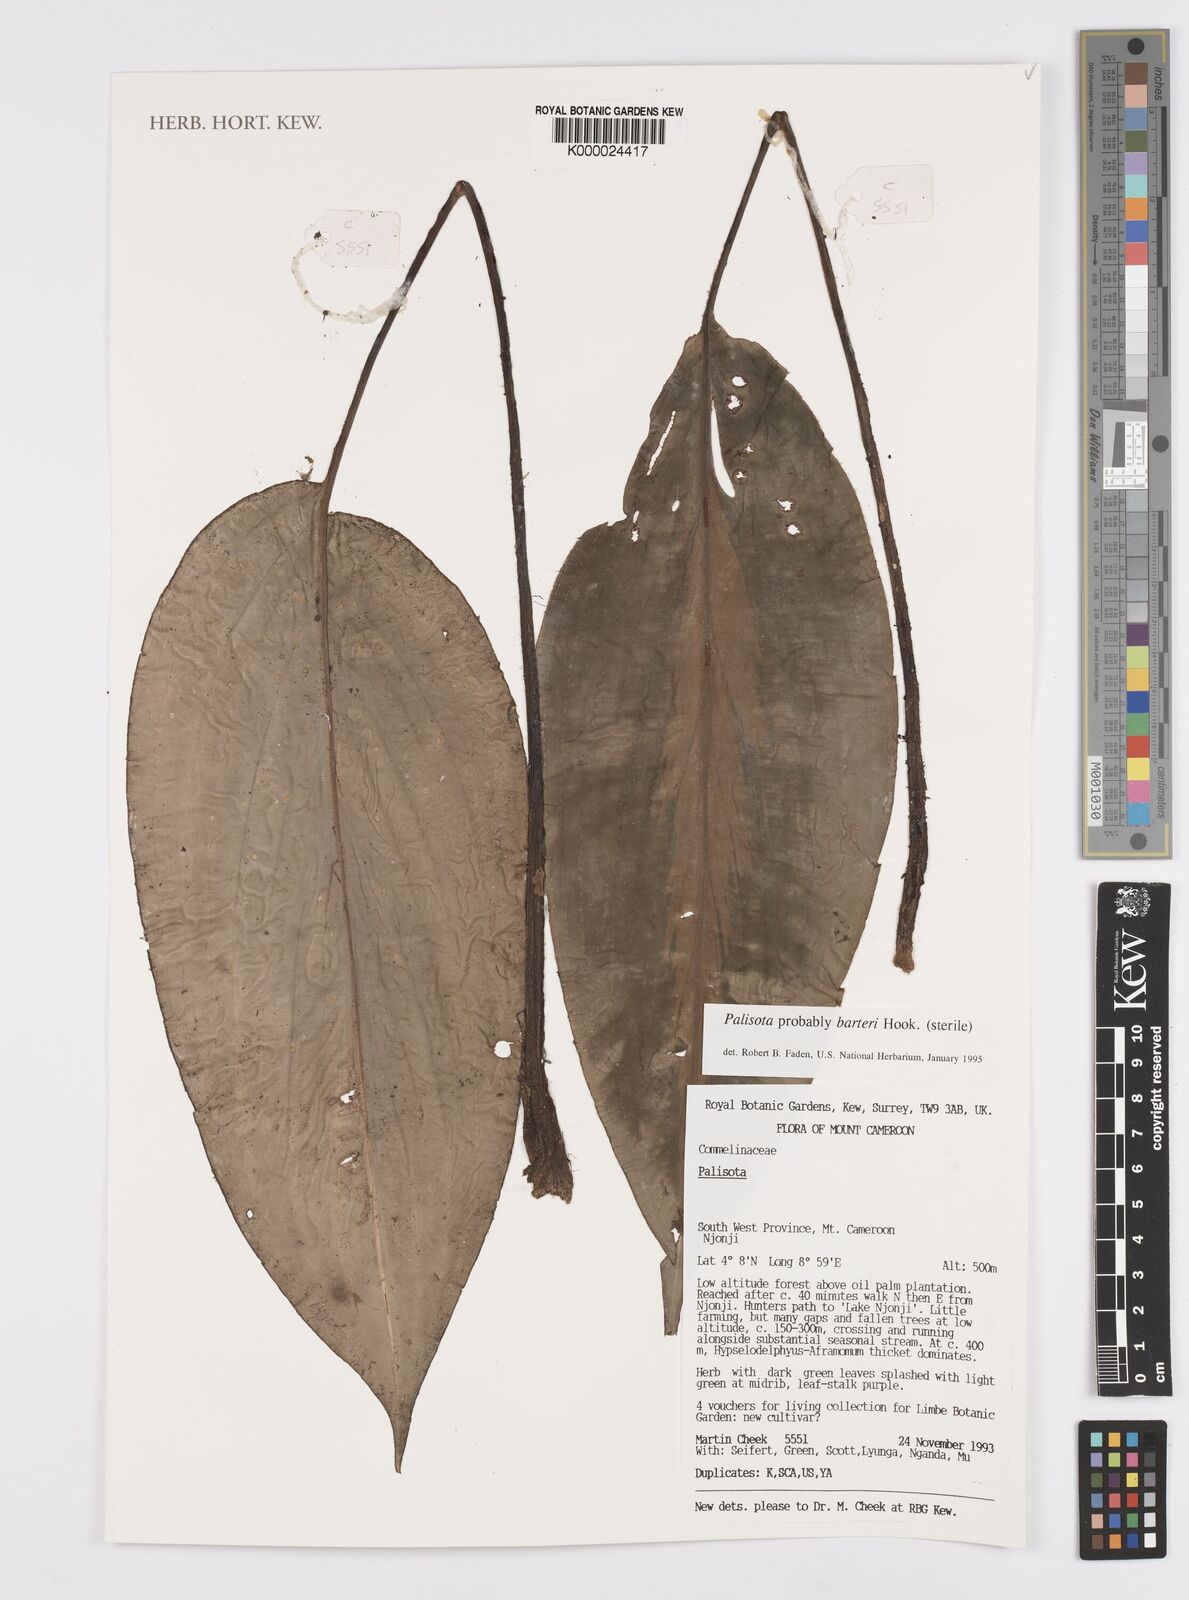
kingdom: Plantae
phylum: Tracheophyta
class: Liliopsida
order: Commelinales
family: Commelinaceae
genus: Palisota
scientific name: Palisota barteri
